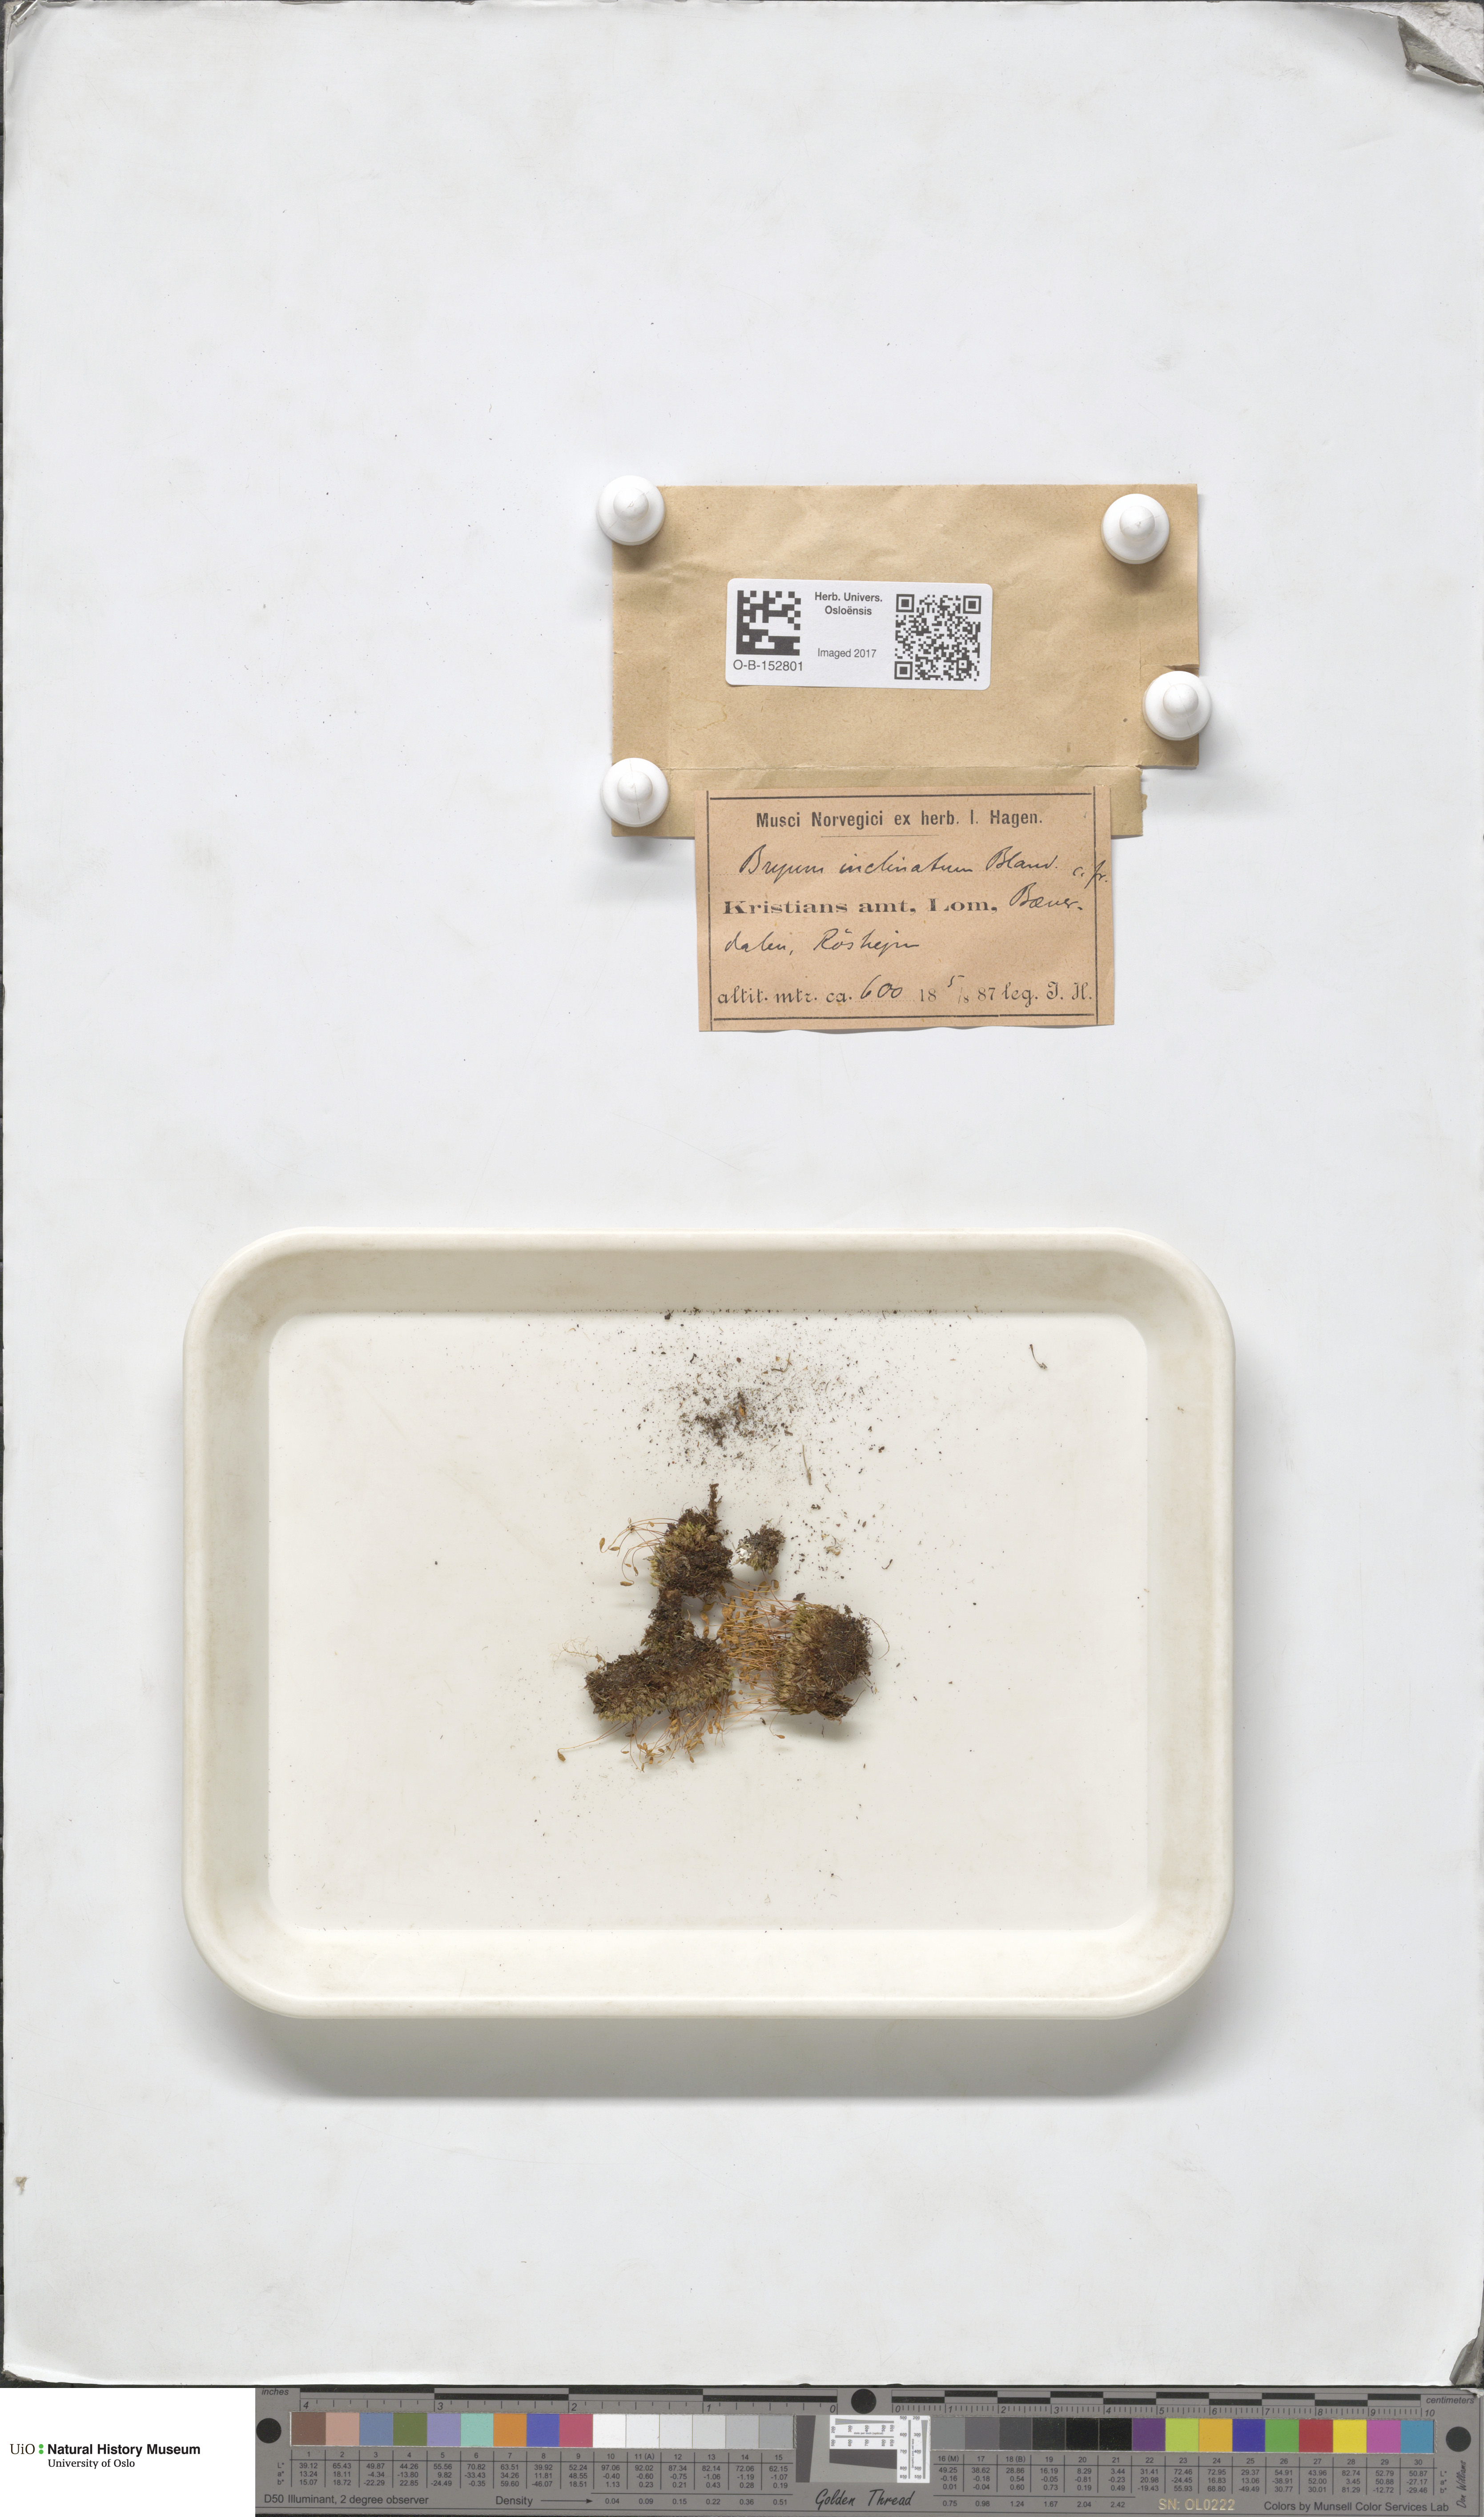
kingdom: Plantae
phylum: Bryophyta
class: Bryopsida
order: Bryales
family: Bryaceae
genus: Ptychostomum
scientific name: Ptychostomum inclinatum
